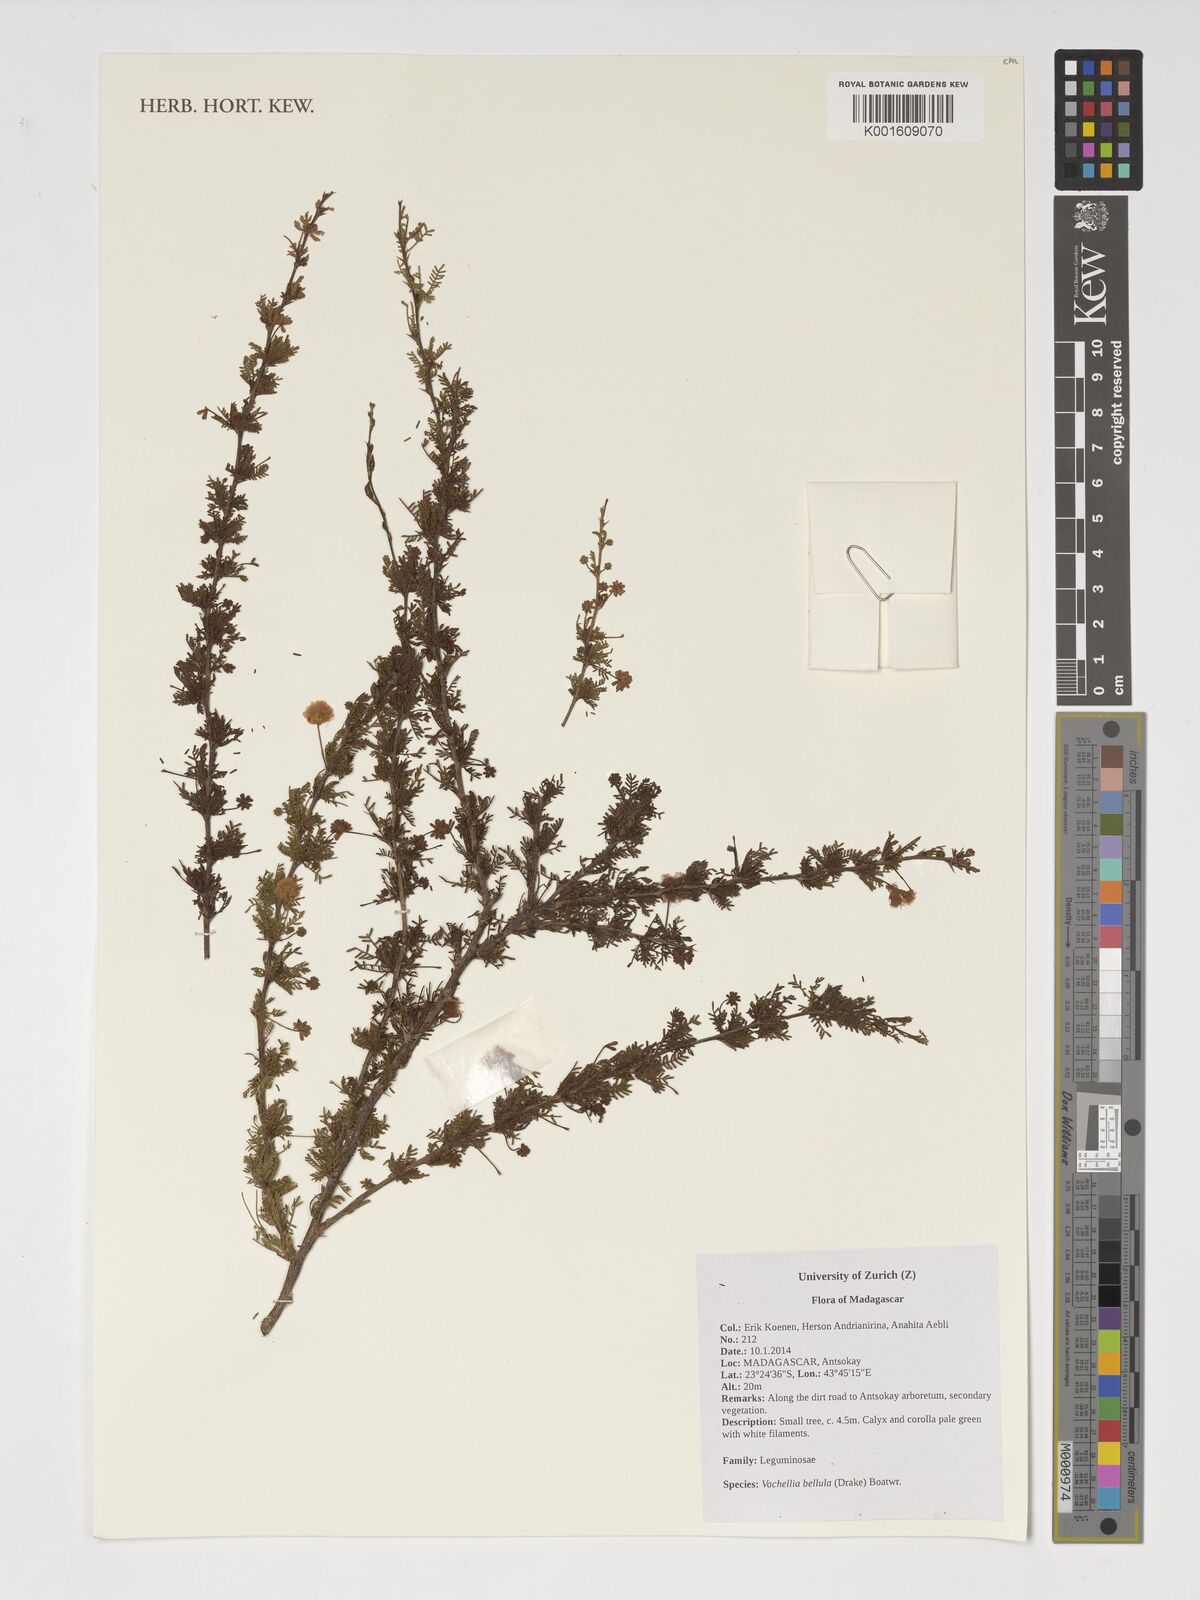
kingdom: Plantae
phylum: Tracheophyta
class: Magnoliopsida
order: Fabales
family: Fabaceae
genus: Vachellia
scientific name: Vachellia bellula
